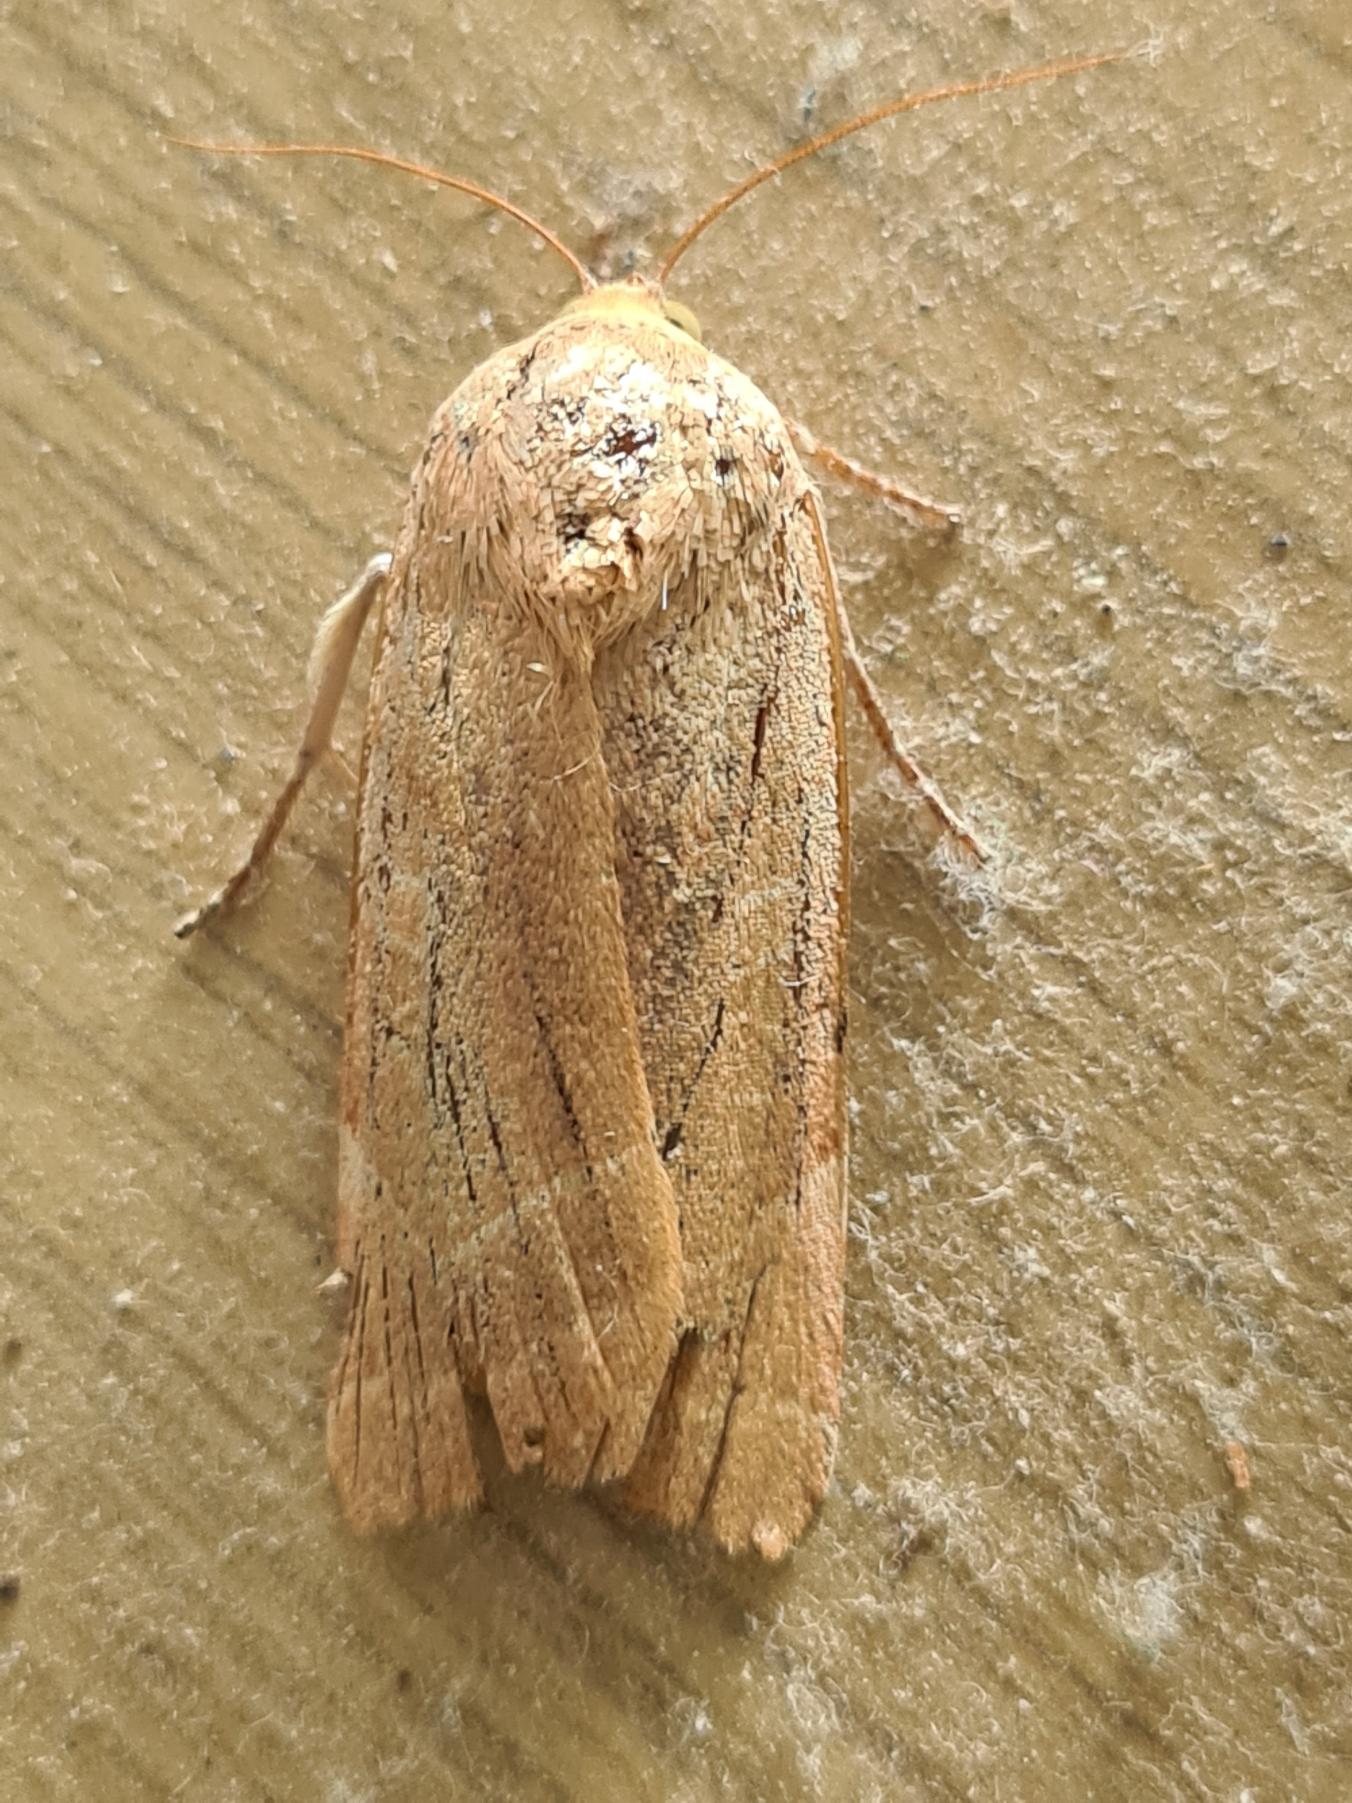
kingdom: Animalia
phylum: Arthropoda
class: Insecta
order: Lepidoptera
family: Noctuidae
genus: Noctua
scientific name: Noctua fimbriata
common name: Gul båndugle
